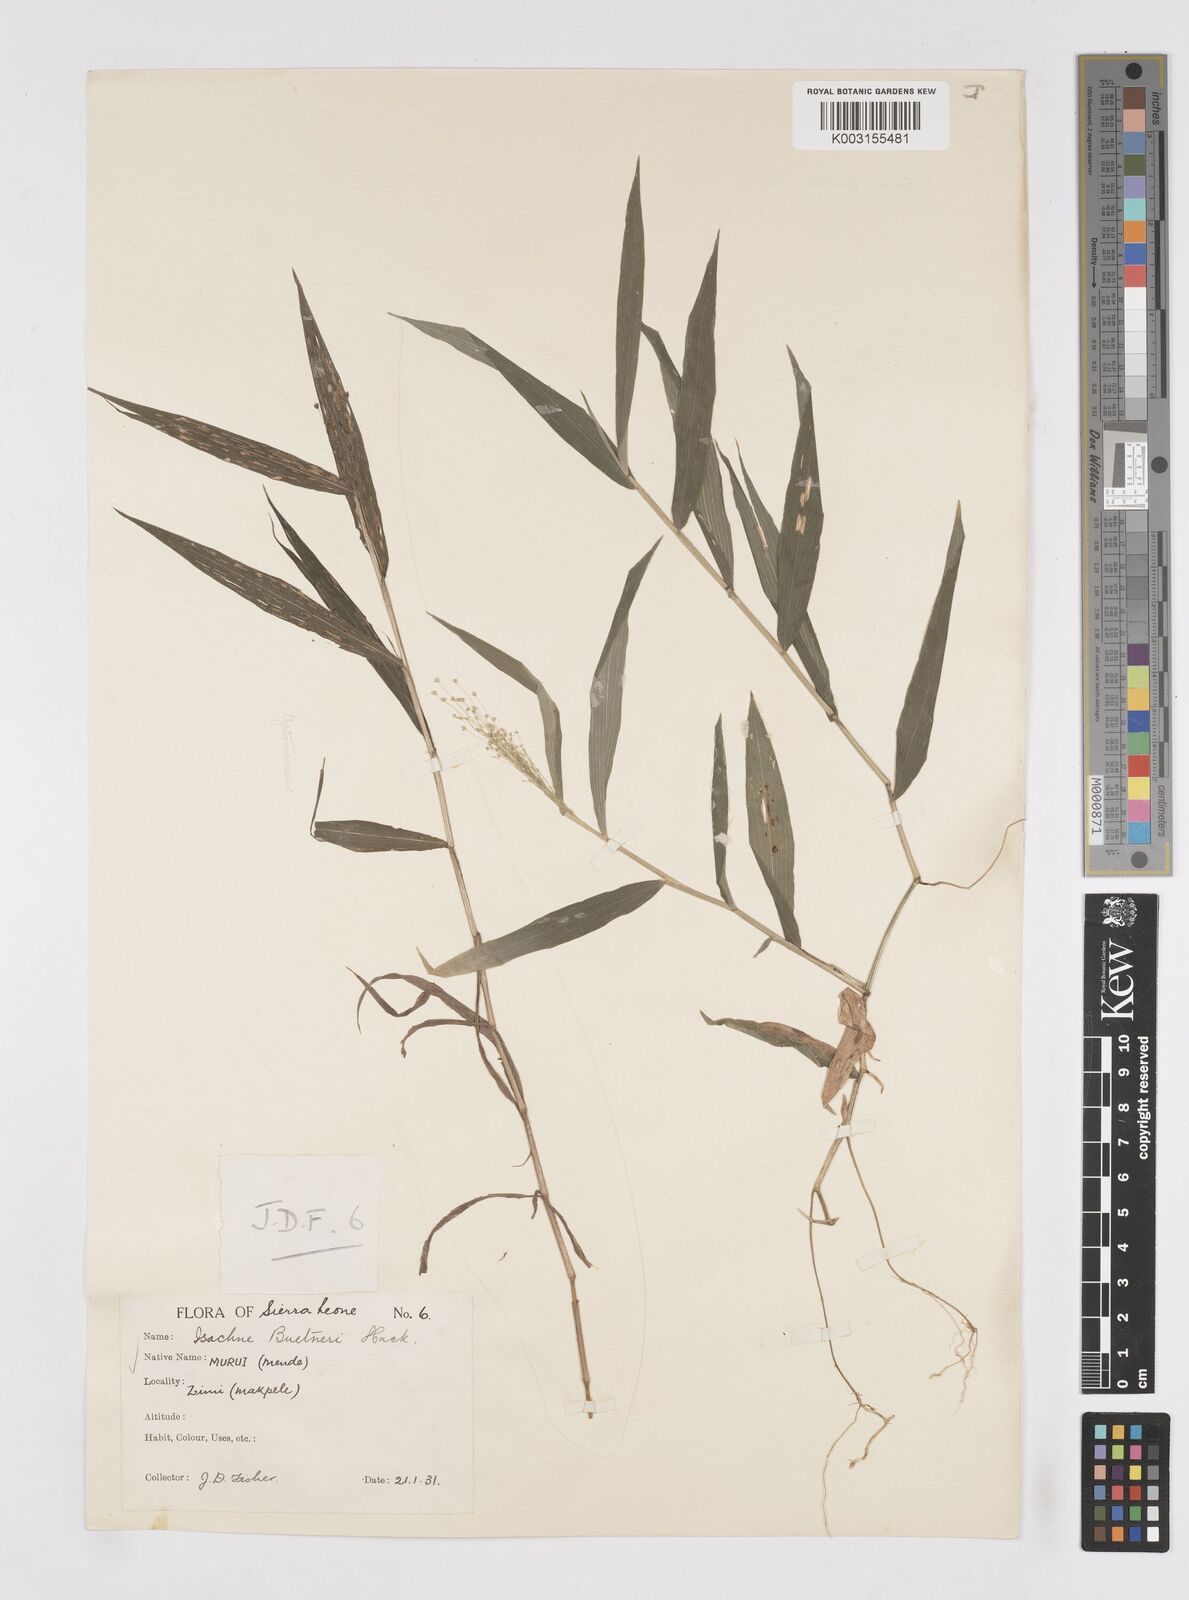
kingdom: Plantae
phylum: Tracheophyta
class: Liliopsida
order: Poales
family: Poaceae
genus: Isachne
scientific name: Isachne albens
